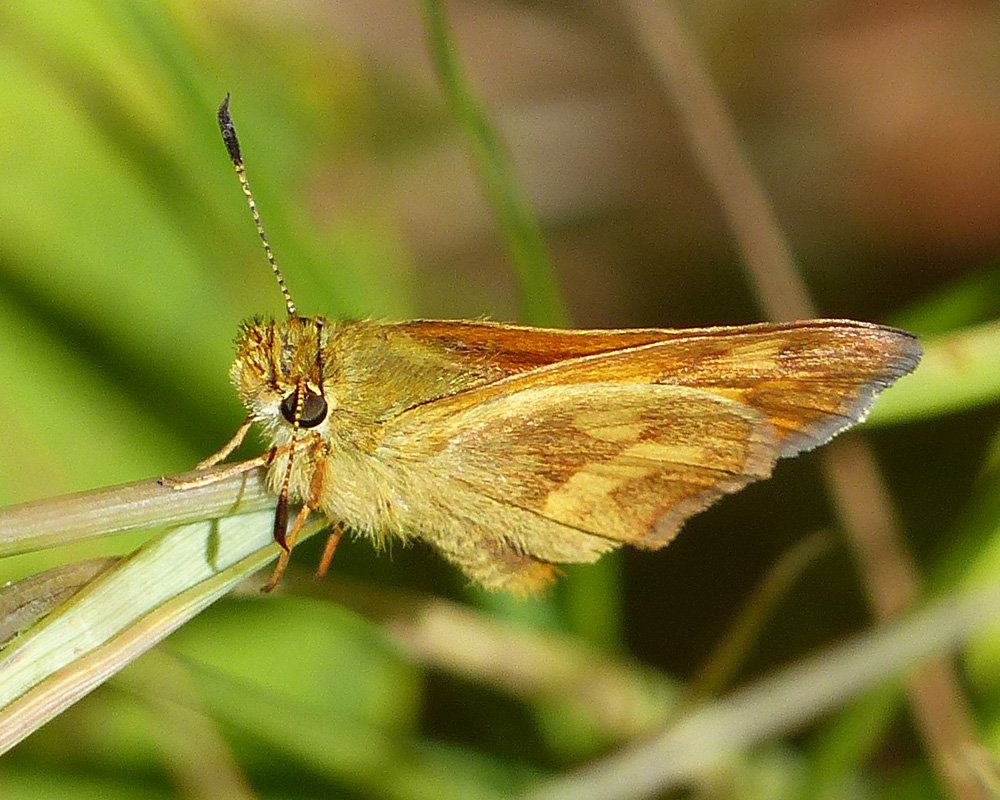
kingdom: Animalia
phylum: Arthropoda
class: Insecta
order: Lepidoptera
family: Hesperiidae
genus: Ochlodes
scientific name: Ochlodes sylvanoides
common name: Woodland Skipper
